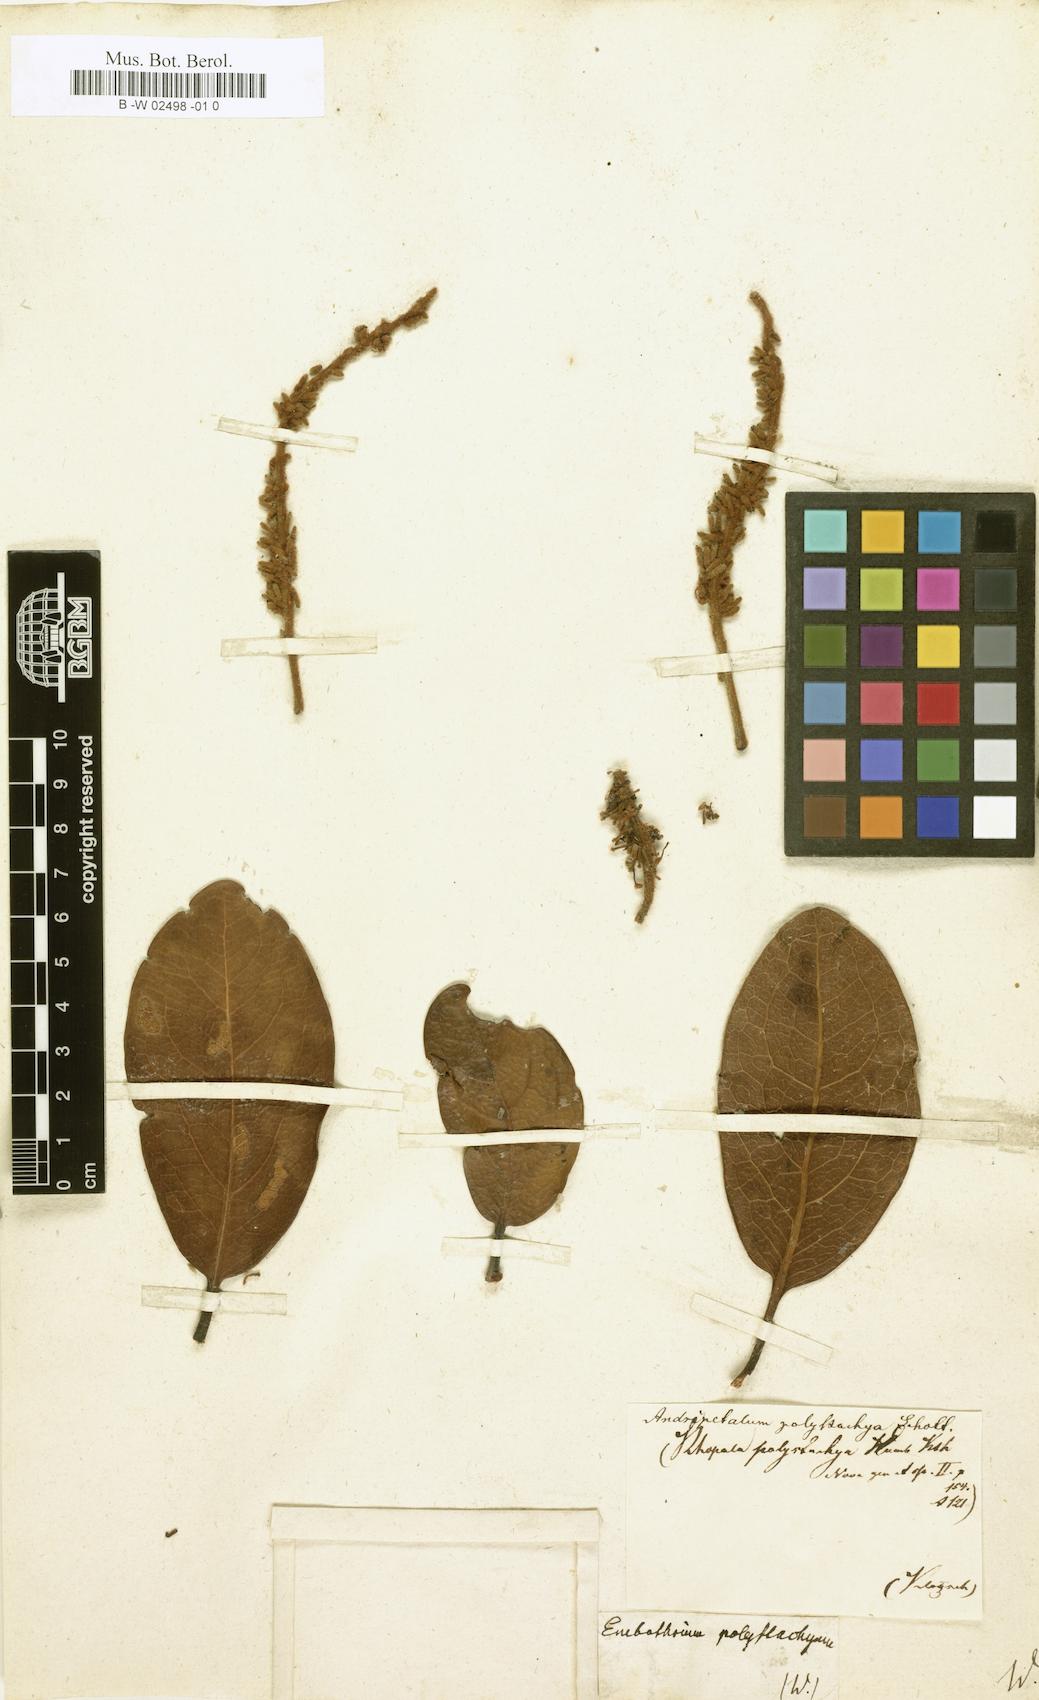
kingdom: Plantae
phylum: Tracheophyta
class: Magnoliopsida
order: Proteales
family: Proteaceae
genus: Panopsis
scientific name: Panopsis polystachya
